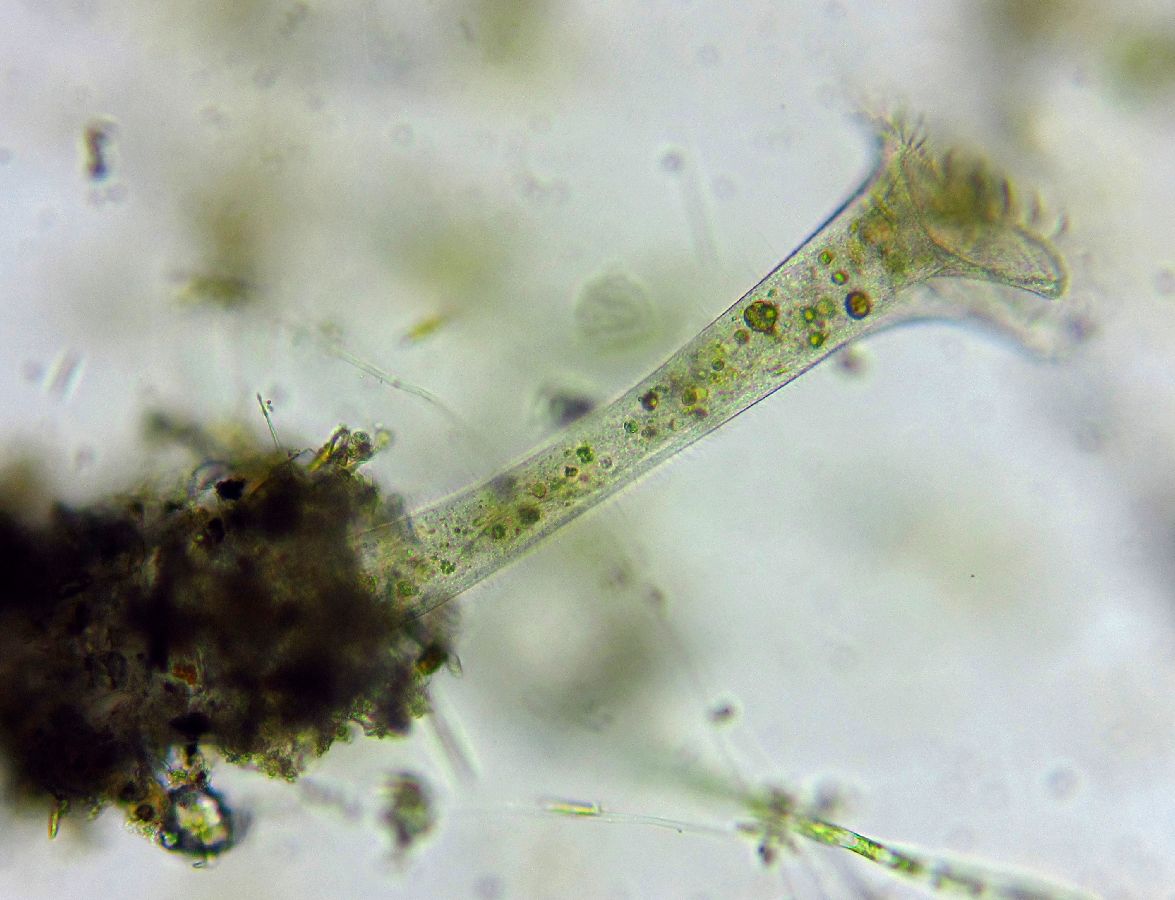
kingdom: Chromista
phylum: Ciliophora
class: Heterotrichea
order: Heterotrichida
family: Stentoridae
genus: Stentor
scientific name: Stentor roeseli
